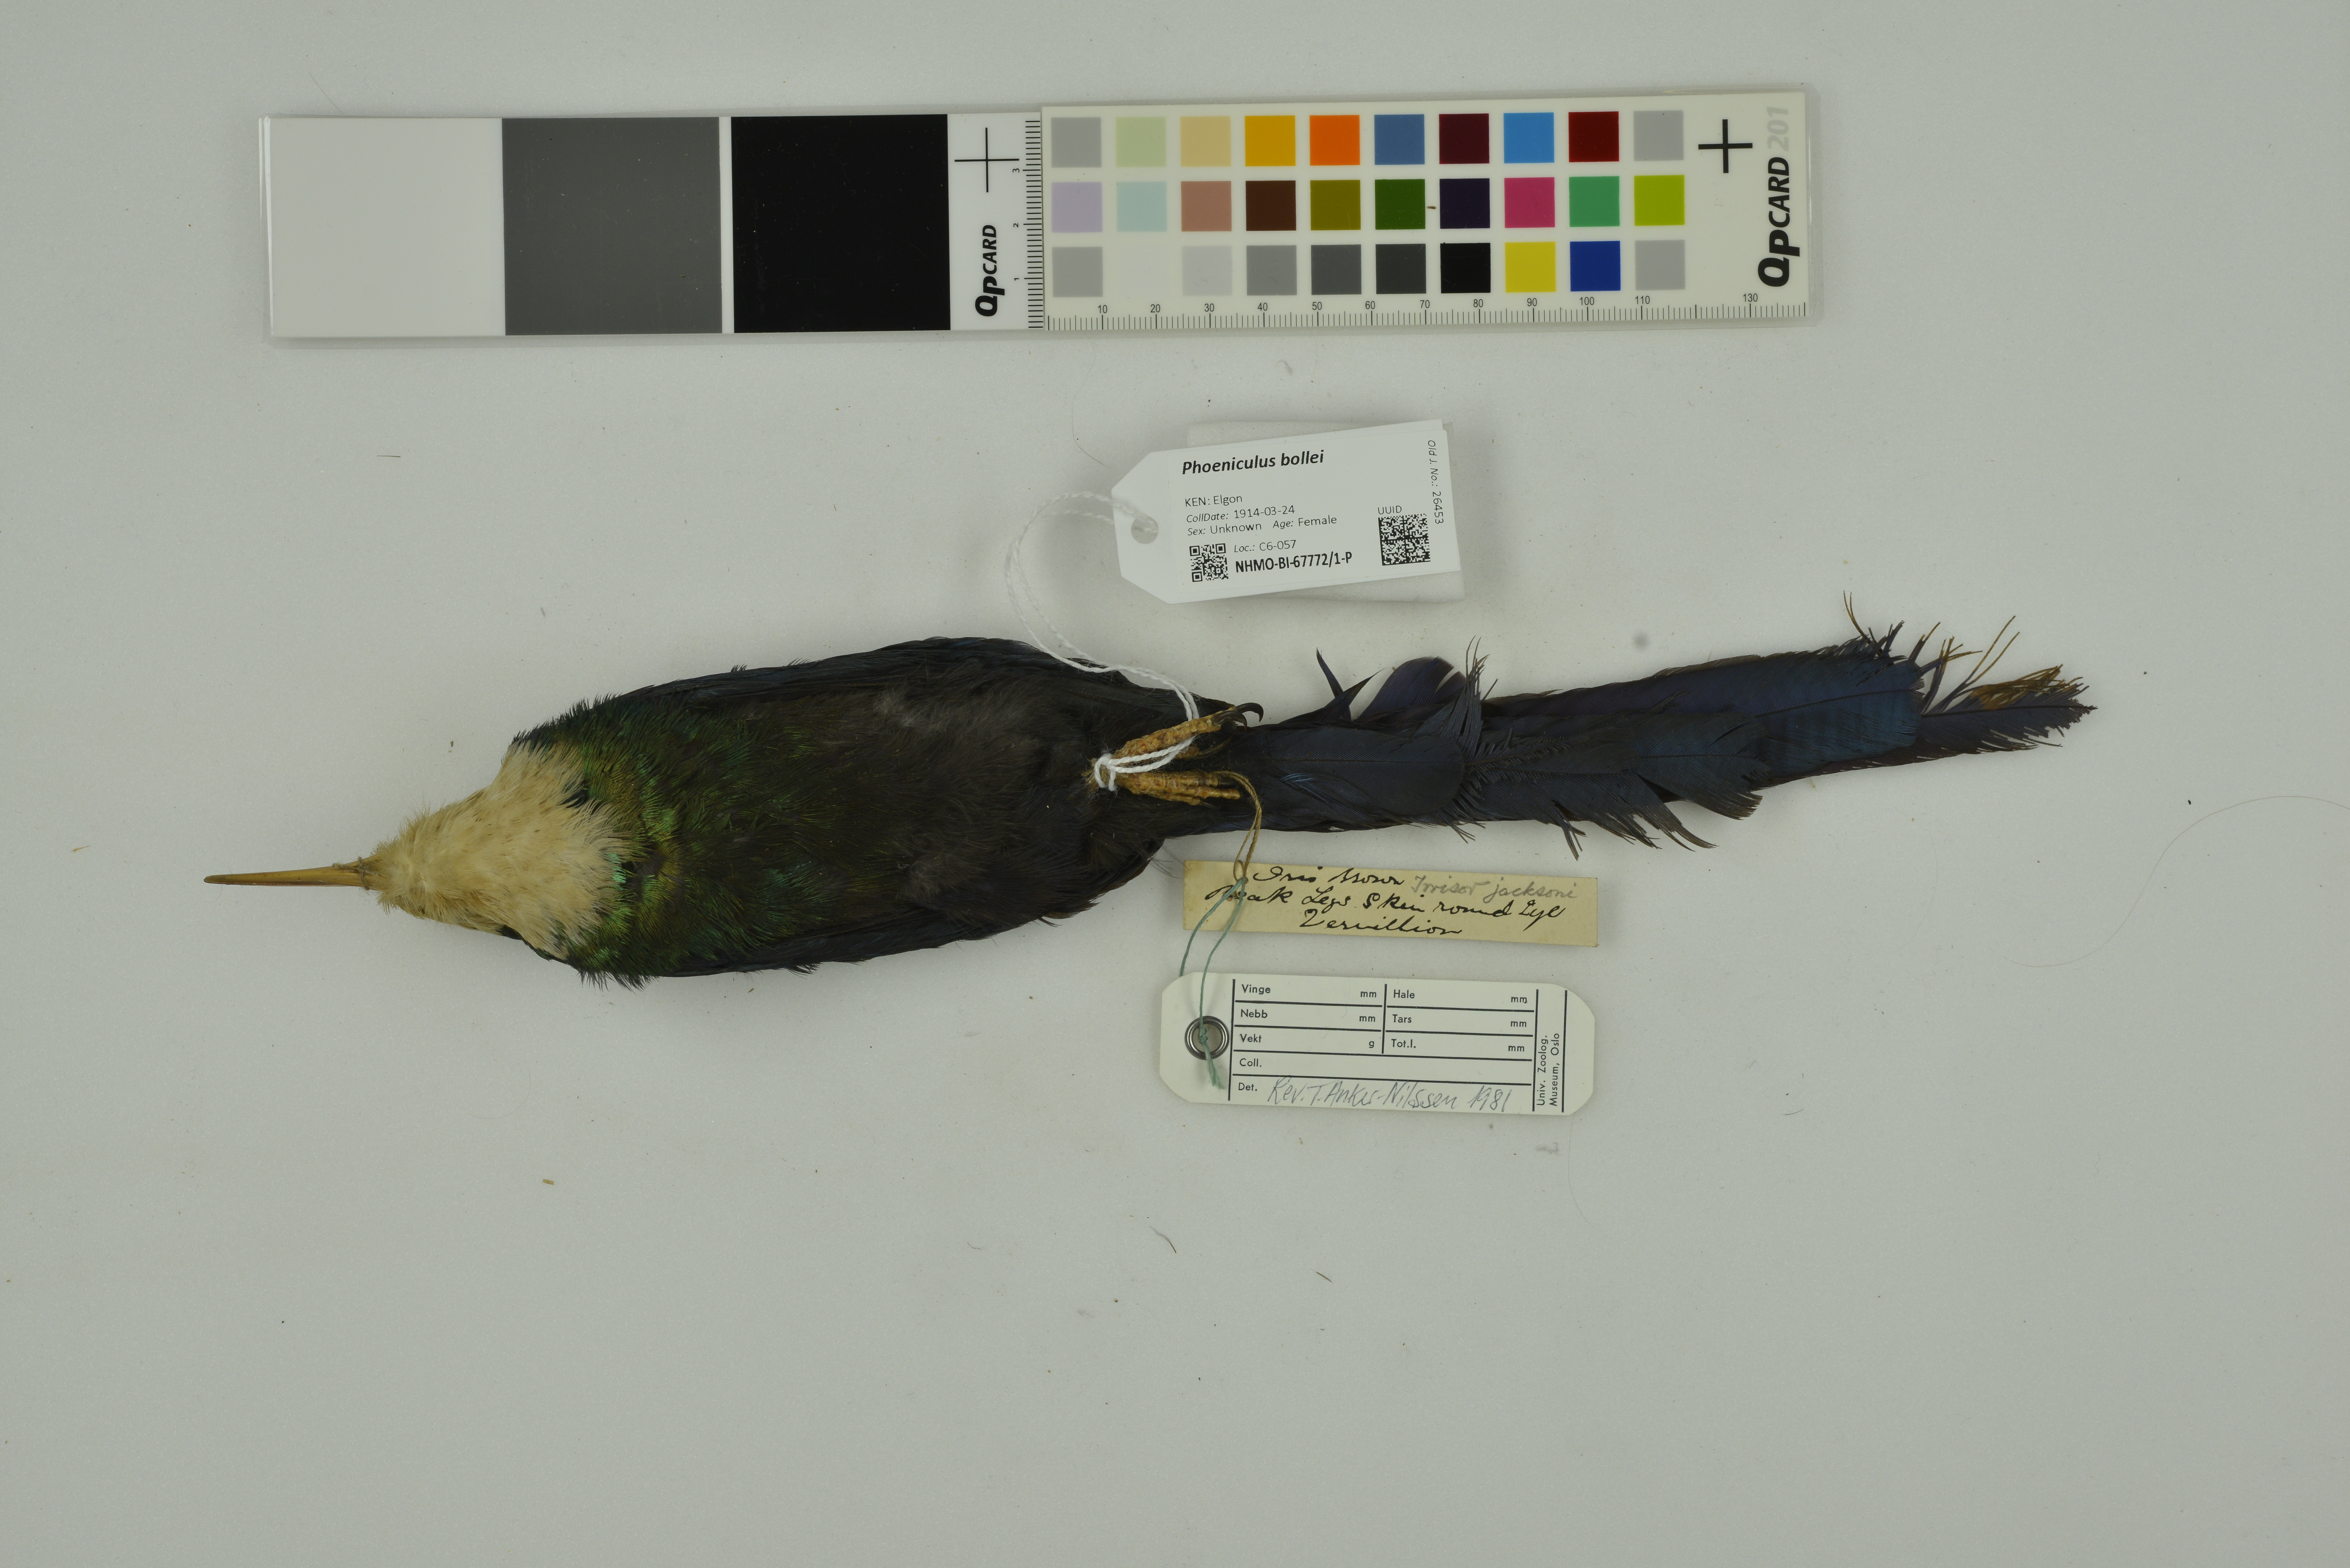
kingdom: Animalia
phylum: Chordata
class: Aves
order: Bucerotiformes
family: Phoeniculidae
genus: Phoeniculus
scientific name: Phoeniculus bollei
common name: White-headed woodhoopoe
